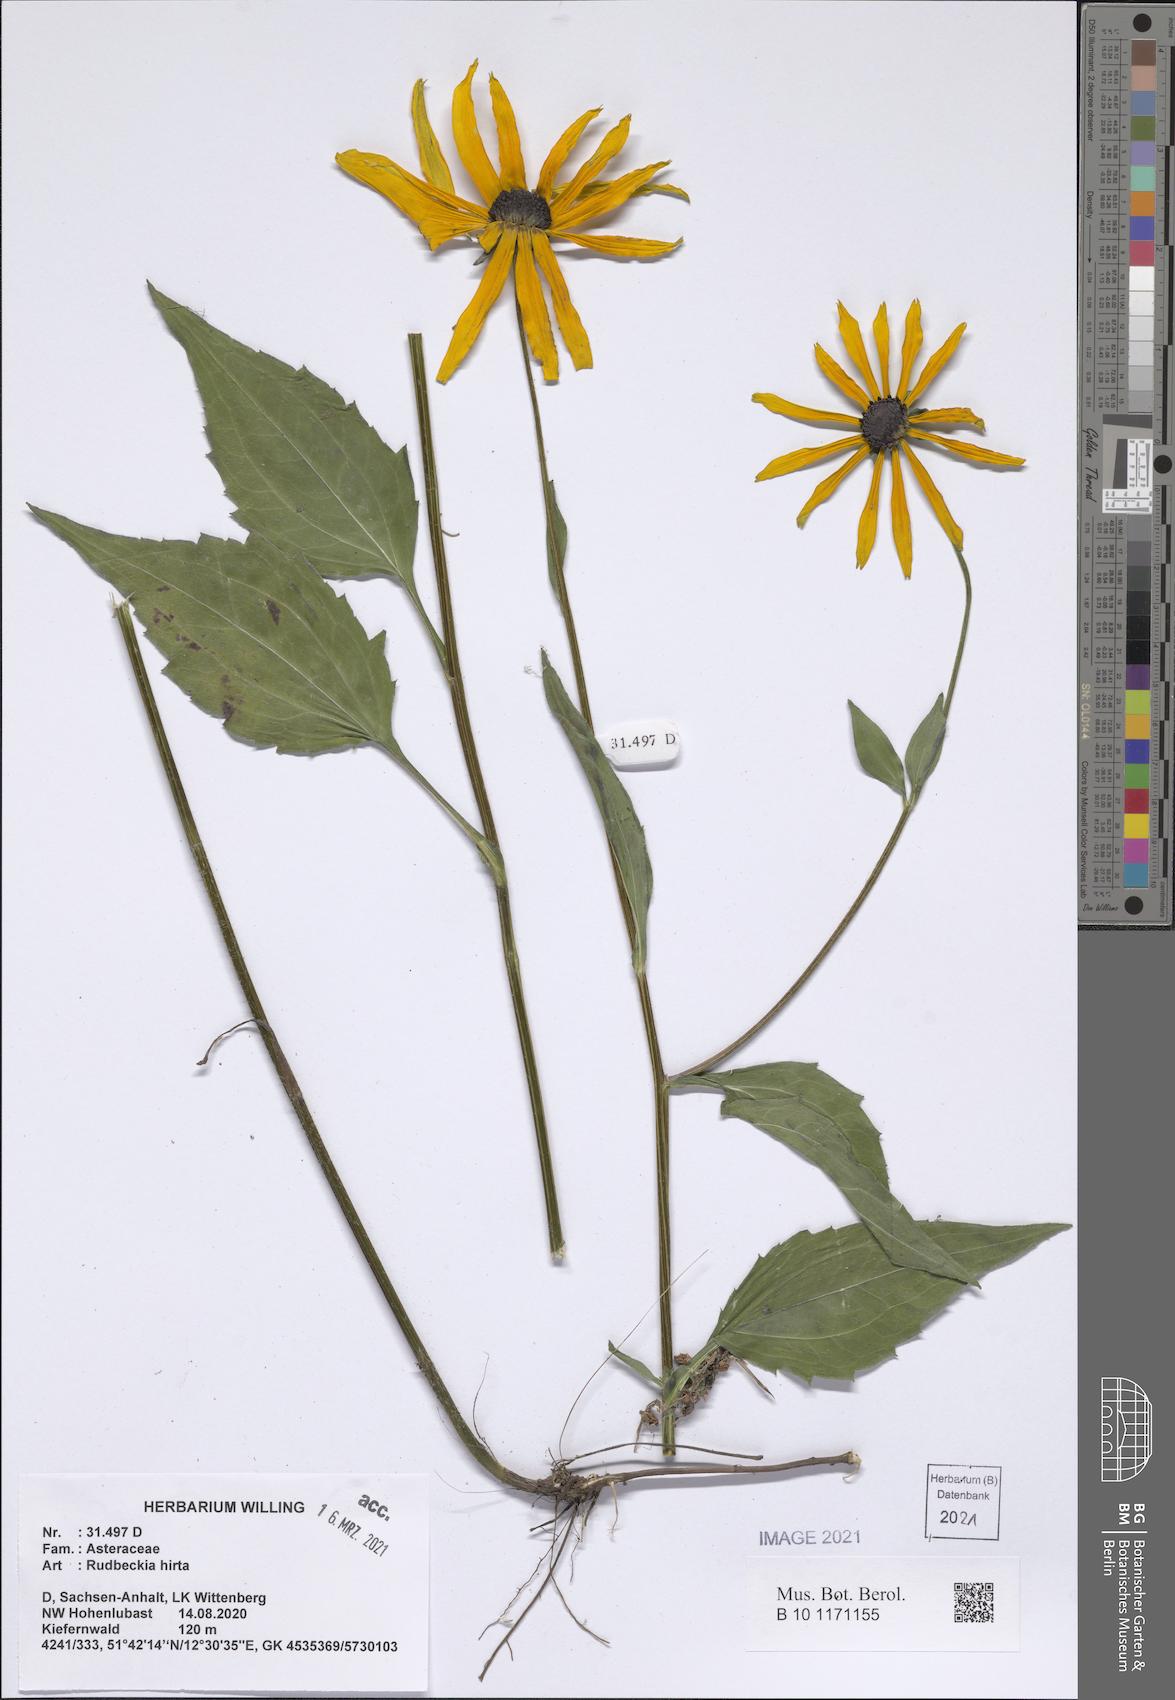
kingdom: Plantae
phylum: Tracheophyta
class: Magnoliopsida
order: Asterales
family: Asteraceae
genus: Rudbeckia
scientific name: Rudbeckia hirta
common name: Black-eyed-susan
